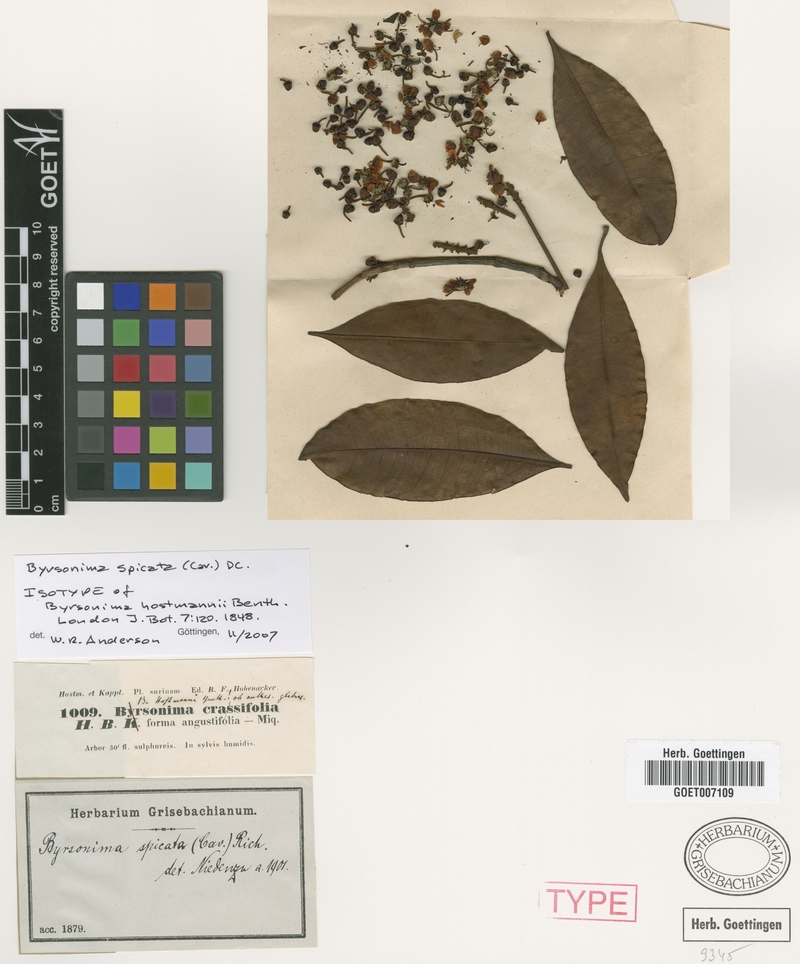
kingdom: Plantae
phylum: Tracheophyta
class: Magnoliopsida
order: Malpighiales
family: Malpighiaceae
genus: Byrsonima
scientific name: Byrsonima spicata
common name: Murixi-bark-tree
